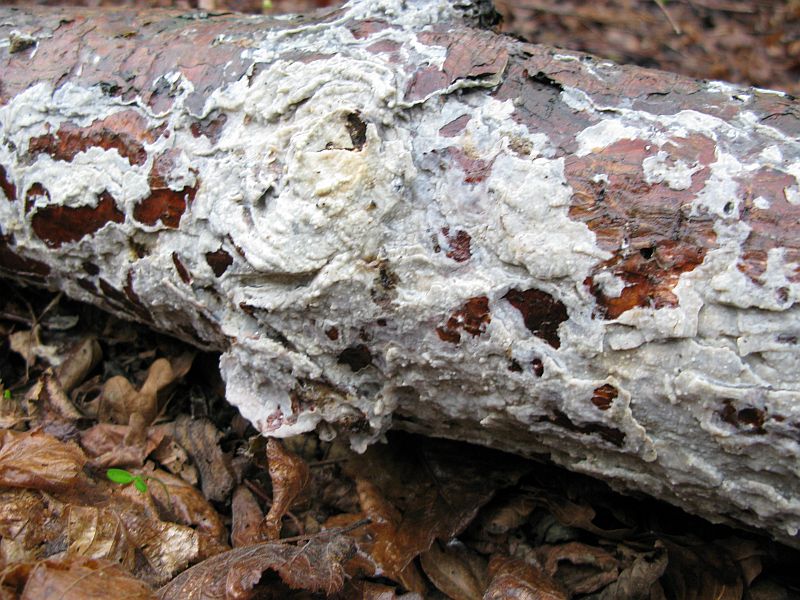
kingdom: Fungi
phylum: Basidiomycota
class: Agaricomycetes
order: Polyporales
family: Phanerochaetaceae
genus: Phlebiopsis
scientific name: Phlebiopsis gigantea
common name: kæmpebarksvamp
